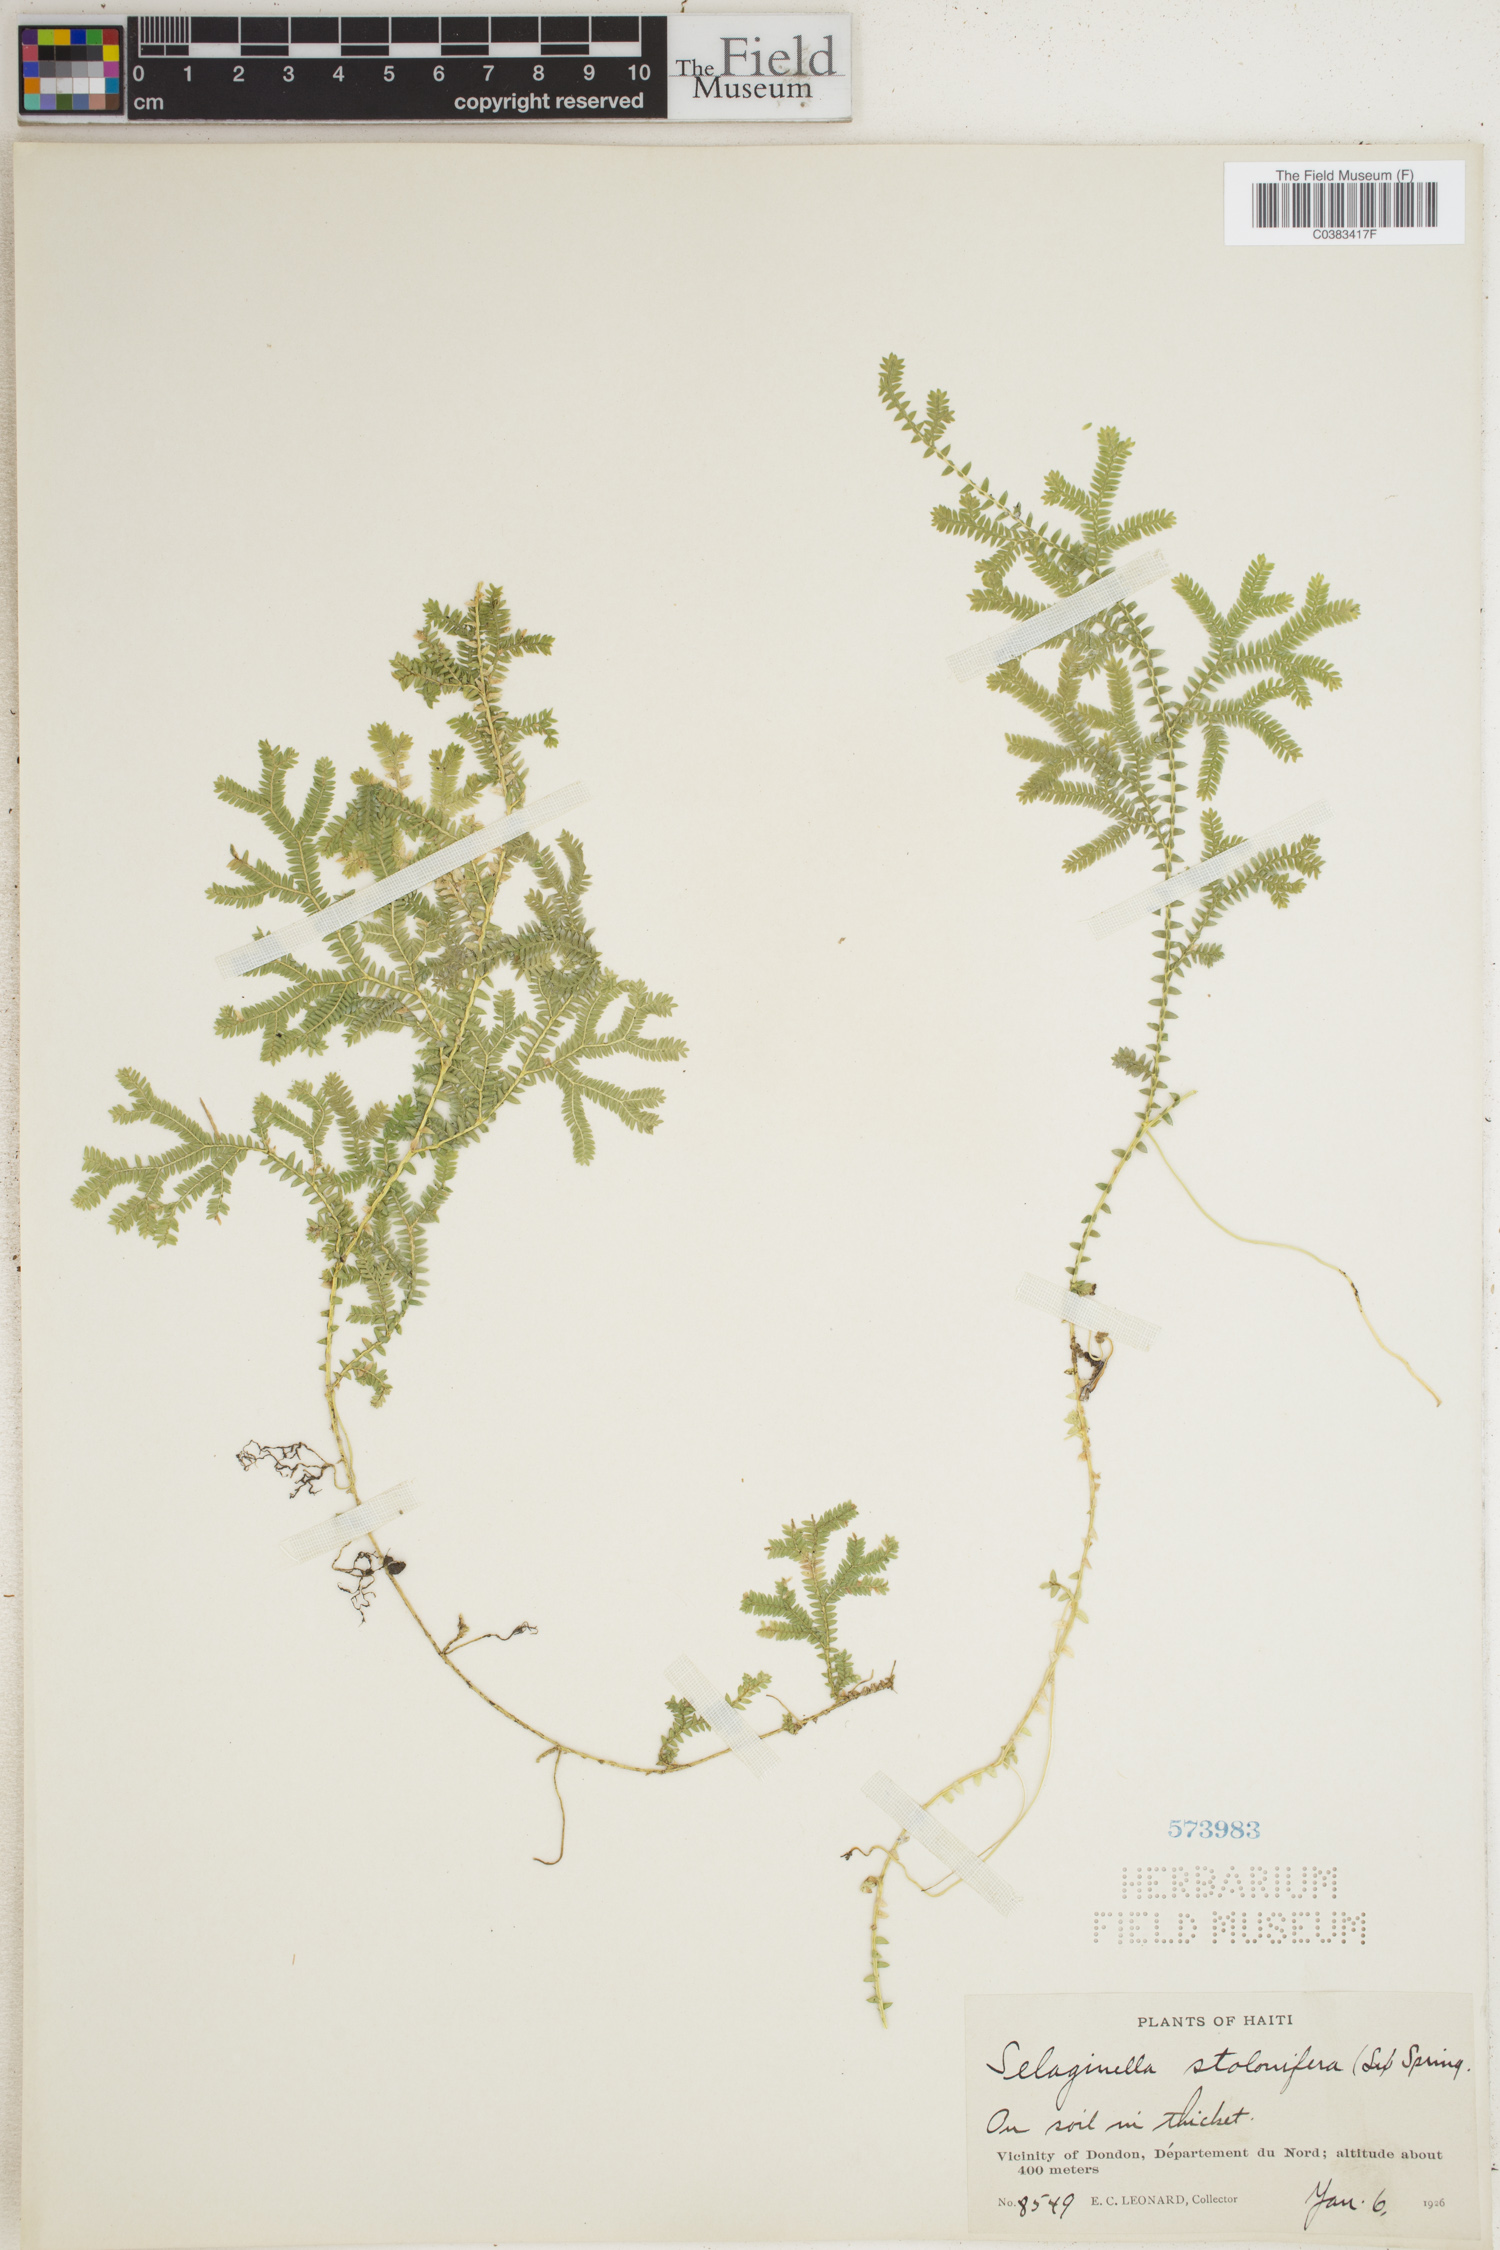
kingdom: Plantae
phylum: Tracheophyta
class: Lycopodiopsida
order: Selaginellales
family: Selaginellaceae
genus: Selaginella
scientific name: Selaginella plumosa
